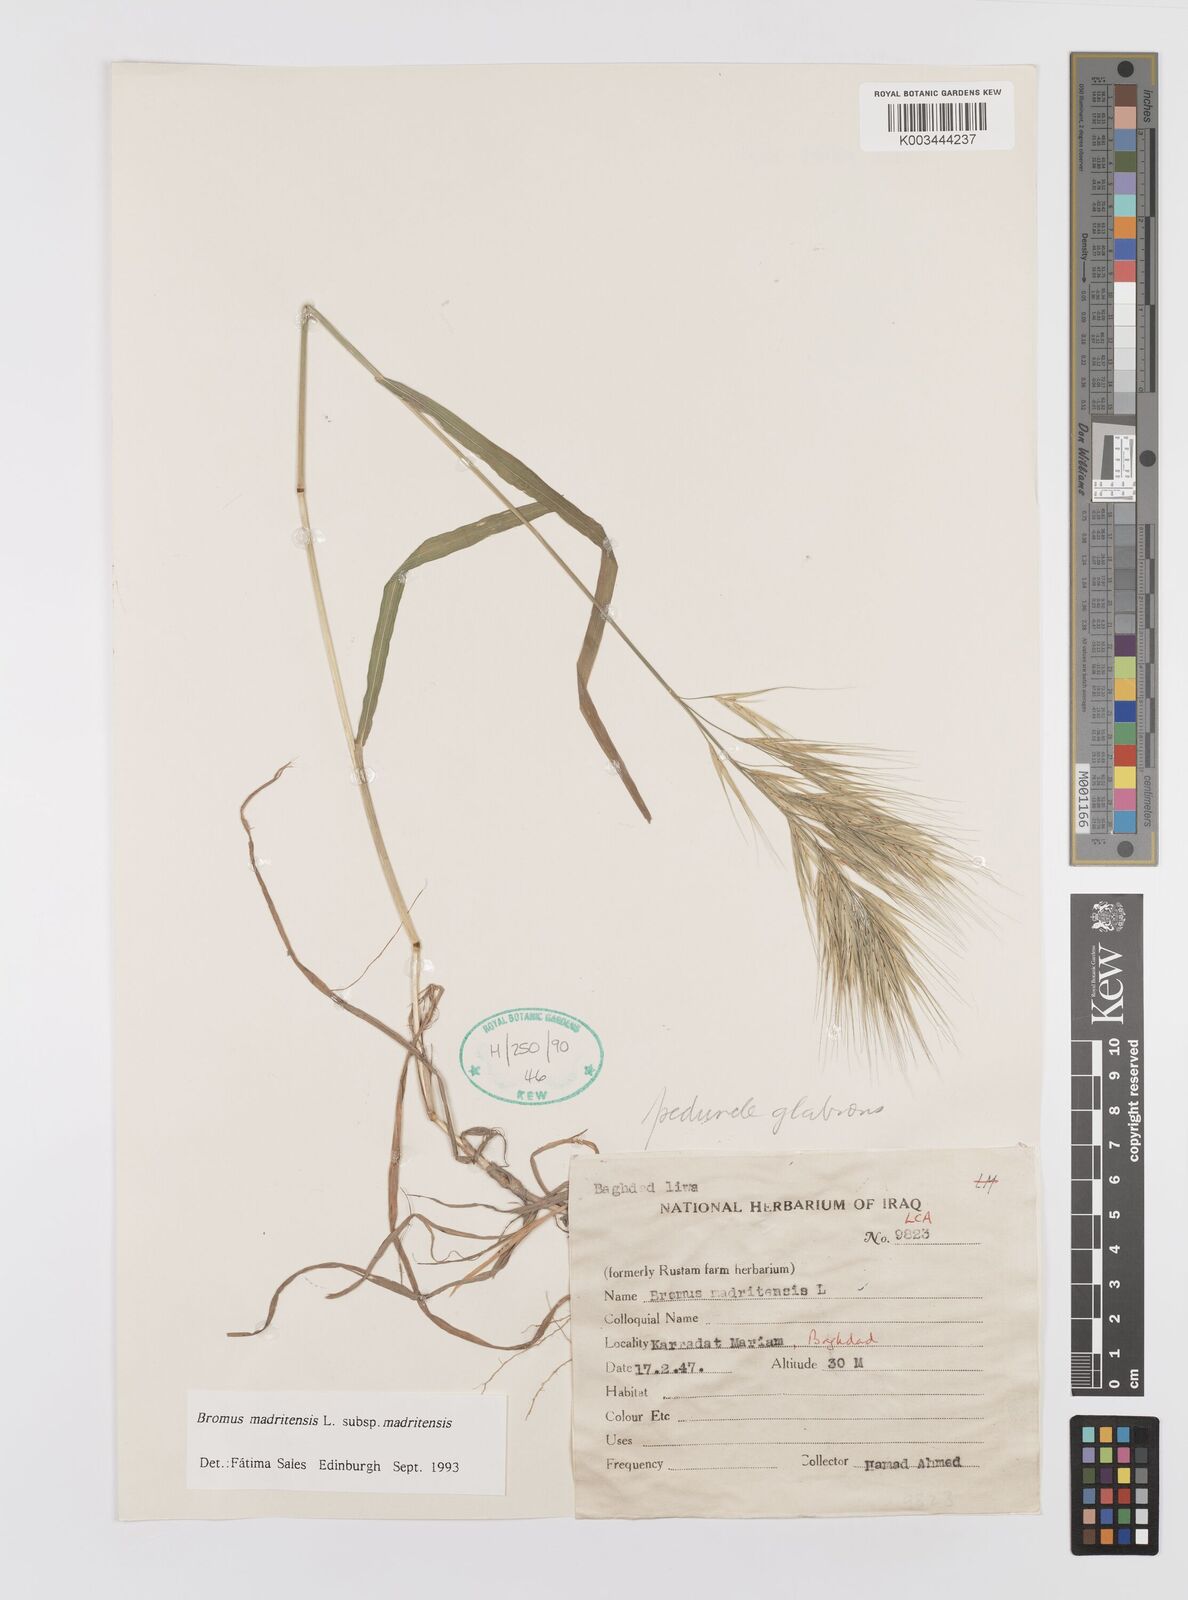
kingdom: Plantae
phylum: Tracheophyta
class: Liliopsida
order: Poales
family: Poaceae
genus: Bromus
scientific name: Bromus madritensis
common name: Compact brome
